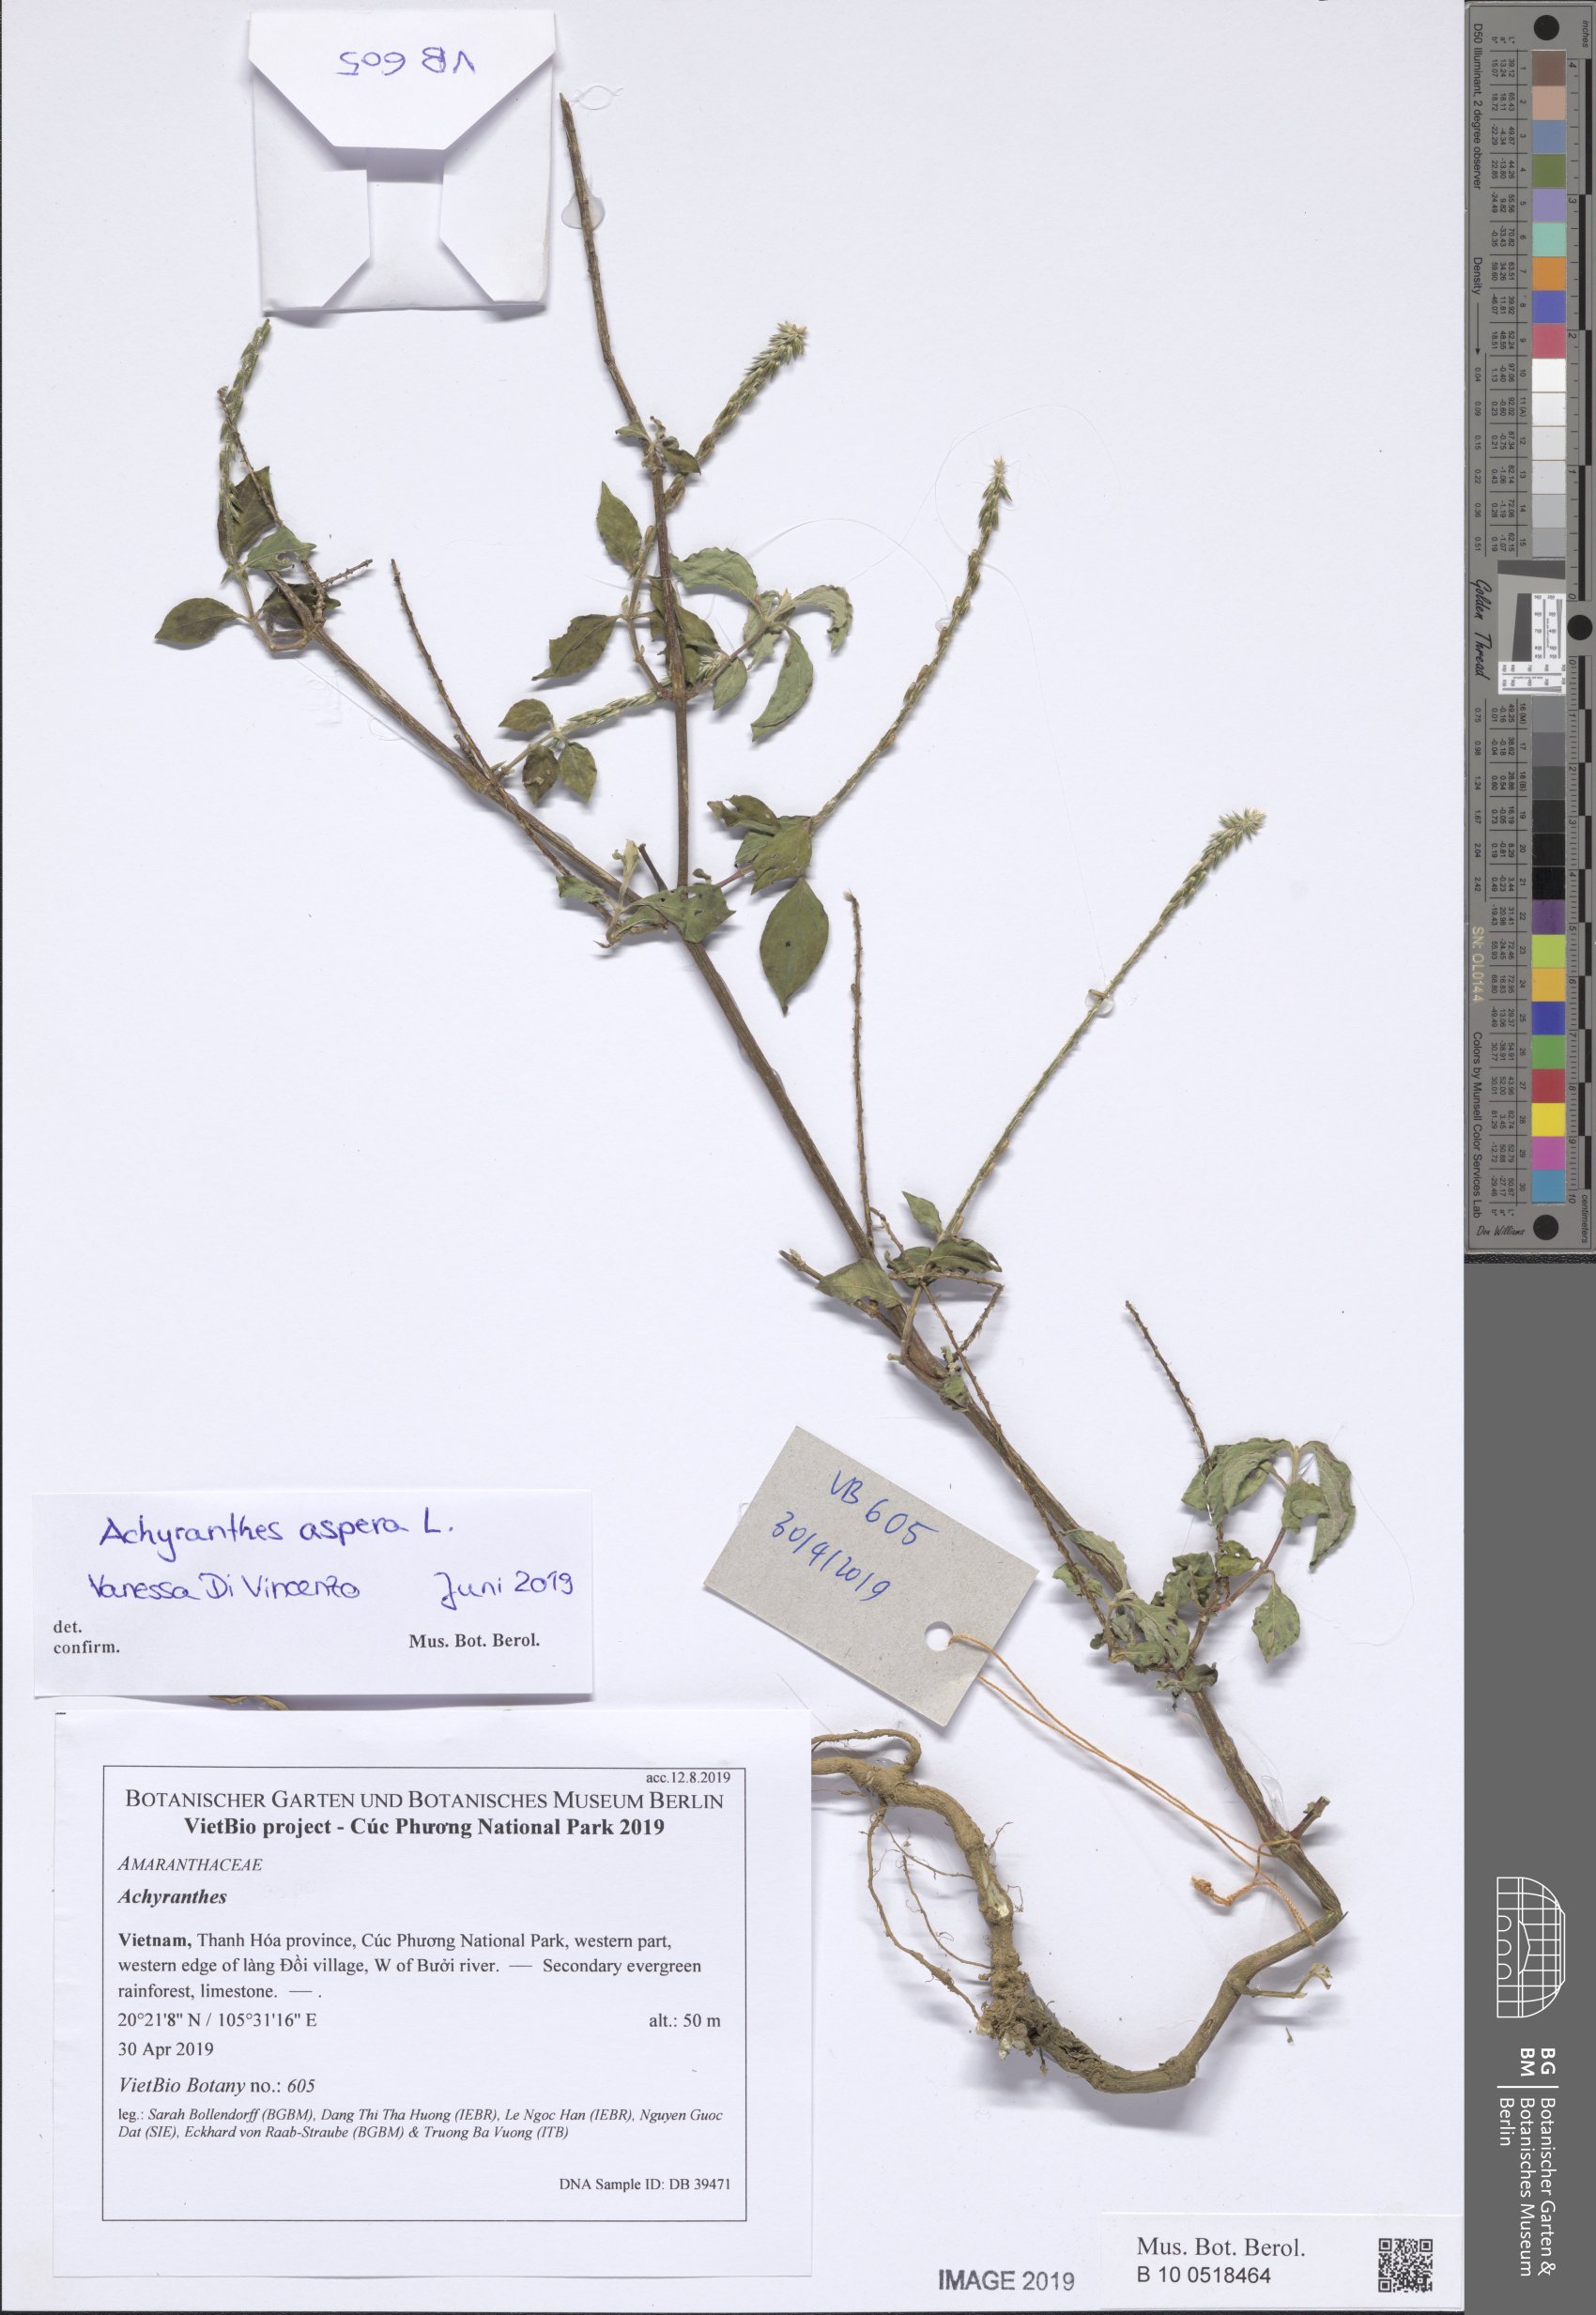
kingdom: Plantae
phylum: Tracheophyta
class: Magnoliopsida
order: Caryophyllales
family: Amaranthaceae
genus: Achyranthes
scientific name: Achyranthes aspera
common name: Devil's horsewhip
